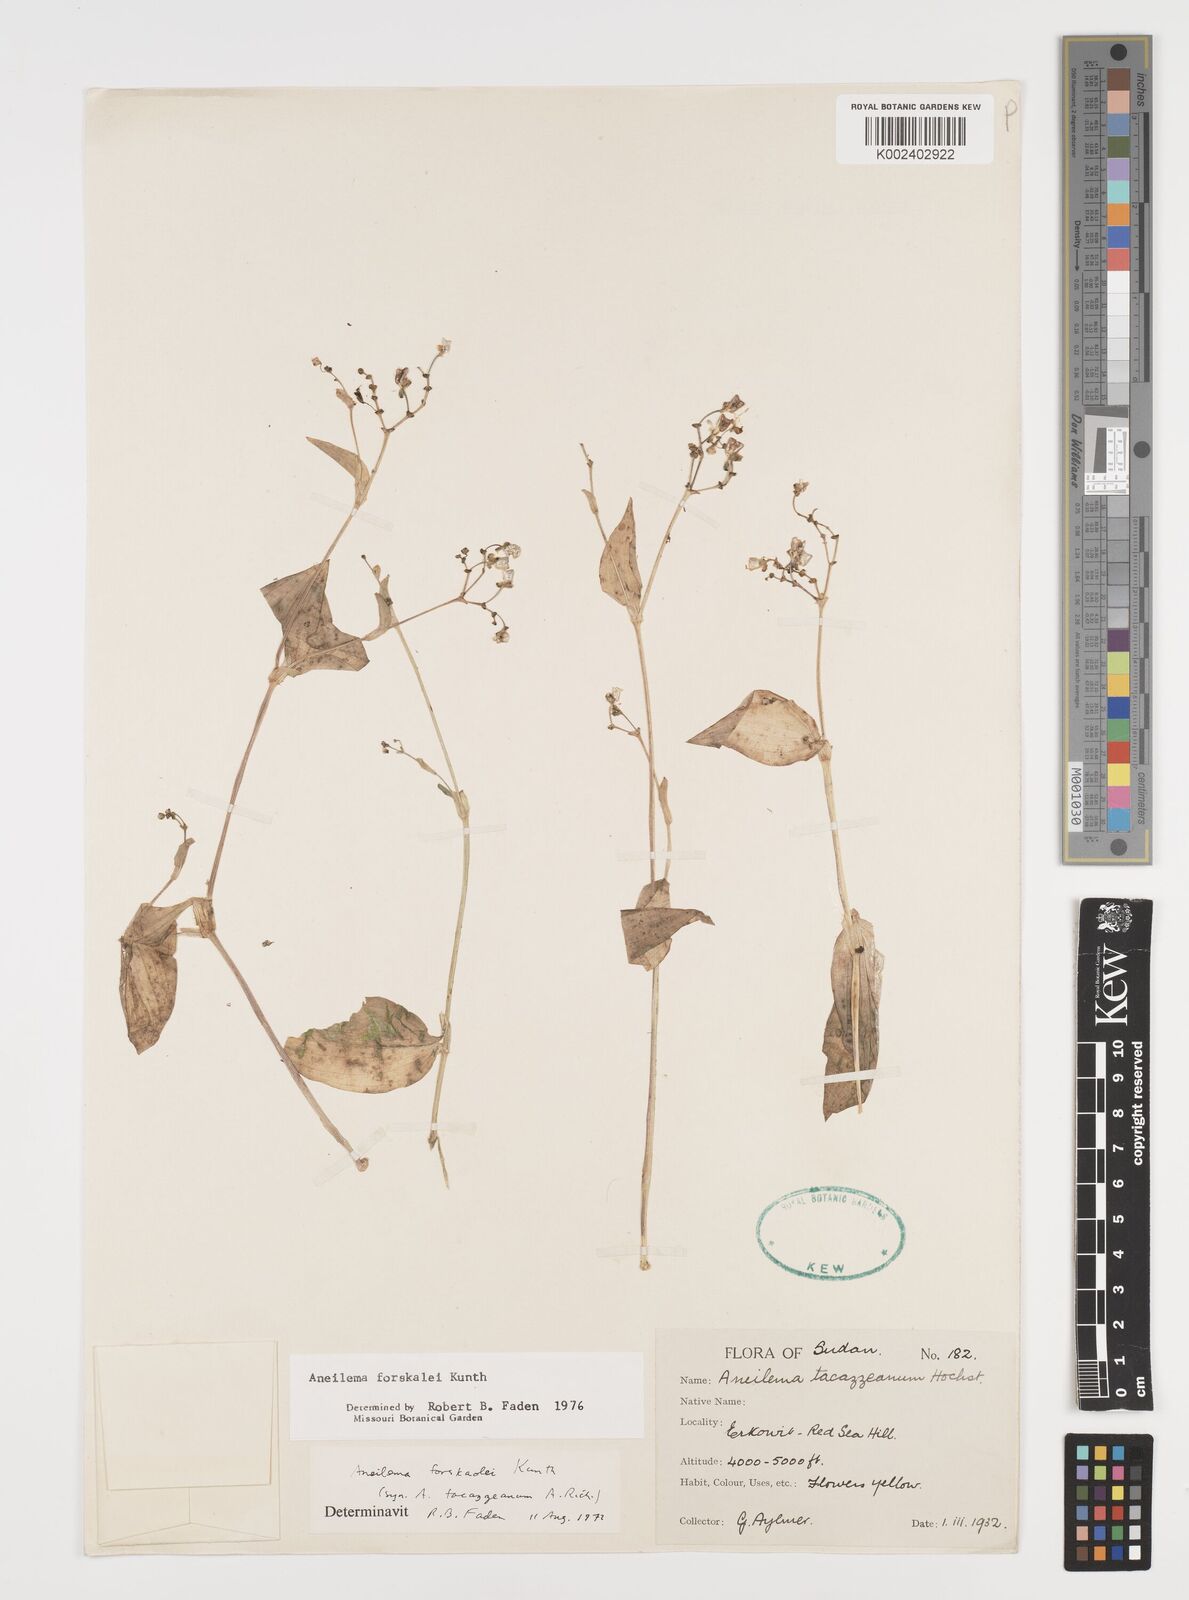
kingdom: Plantae
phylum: Tracheophyta
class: Liliopsida
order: Commelinales
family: Commelinaceae
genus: Aneilema
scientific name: Aneilema forskalii
